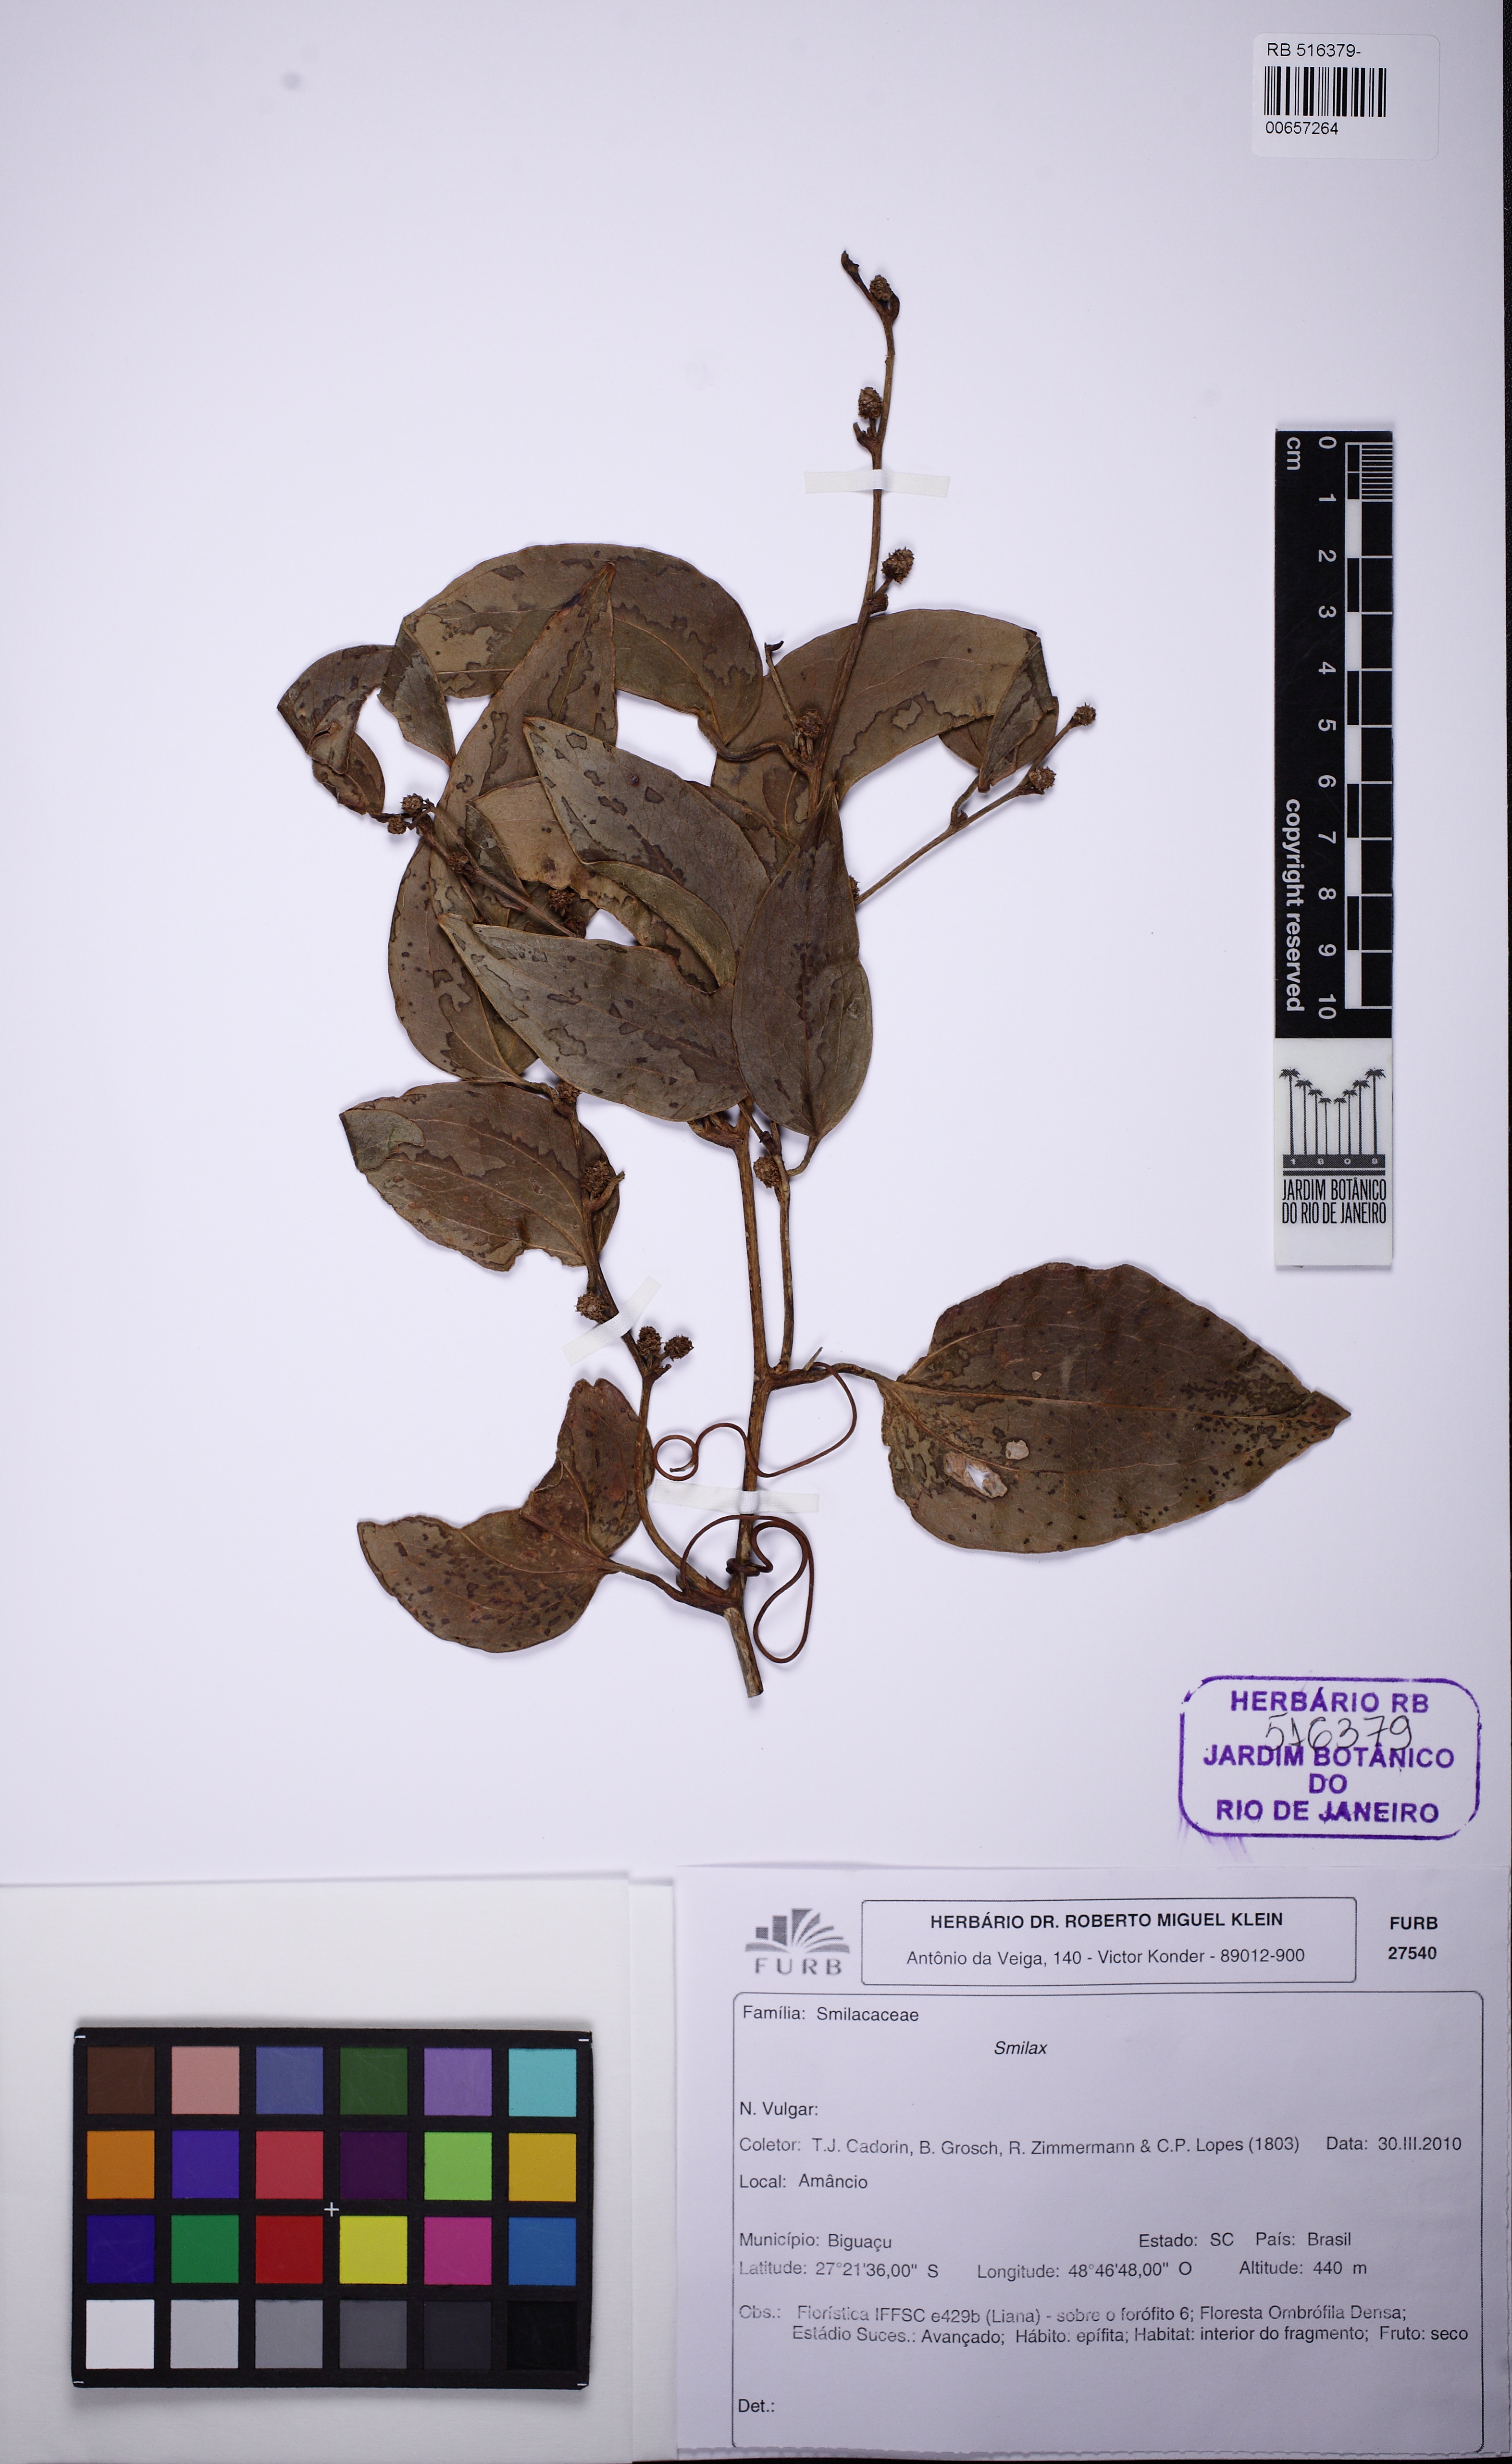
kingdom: Plantae
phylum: Tracheophyta
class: Liliopsida
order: Liliales
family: Smilacaceae
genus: Smilax
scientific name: Smilax
